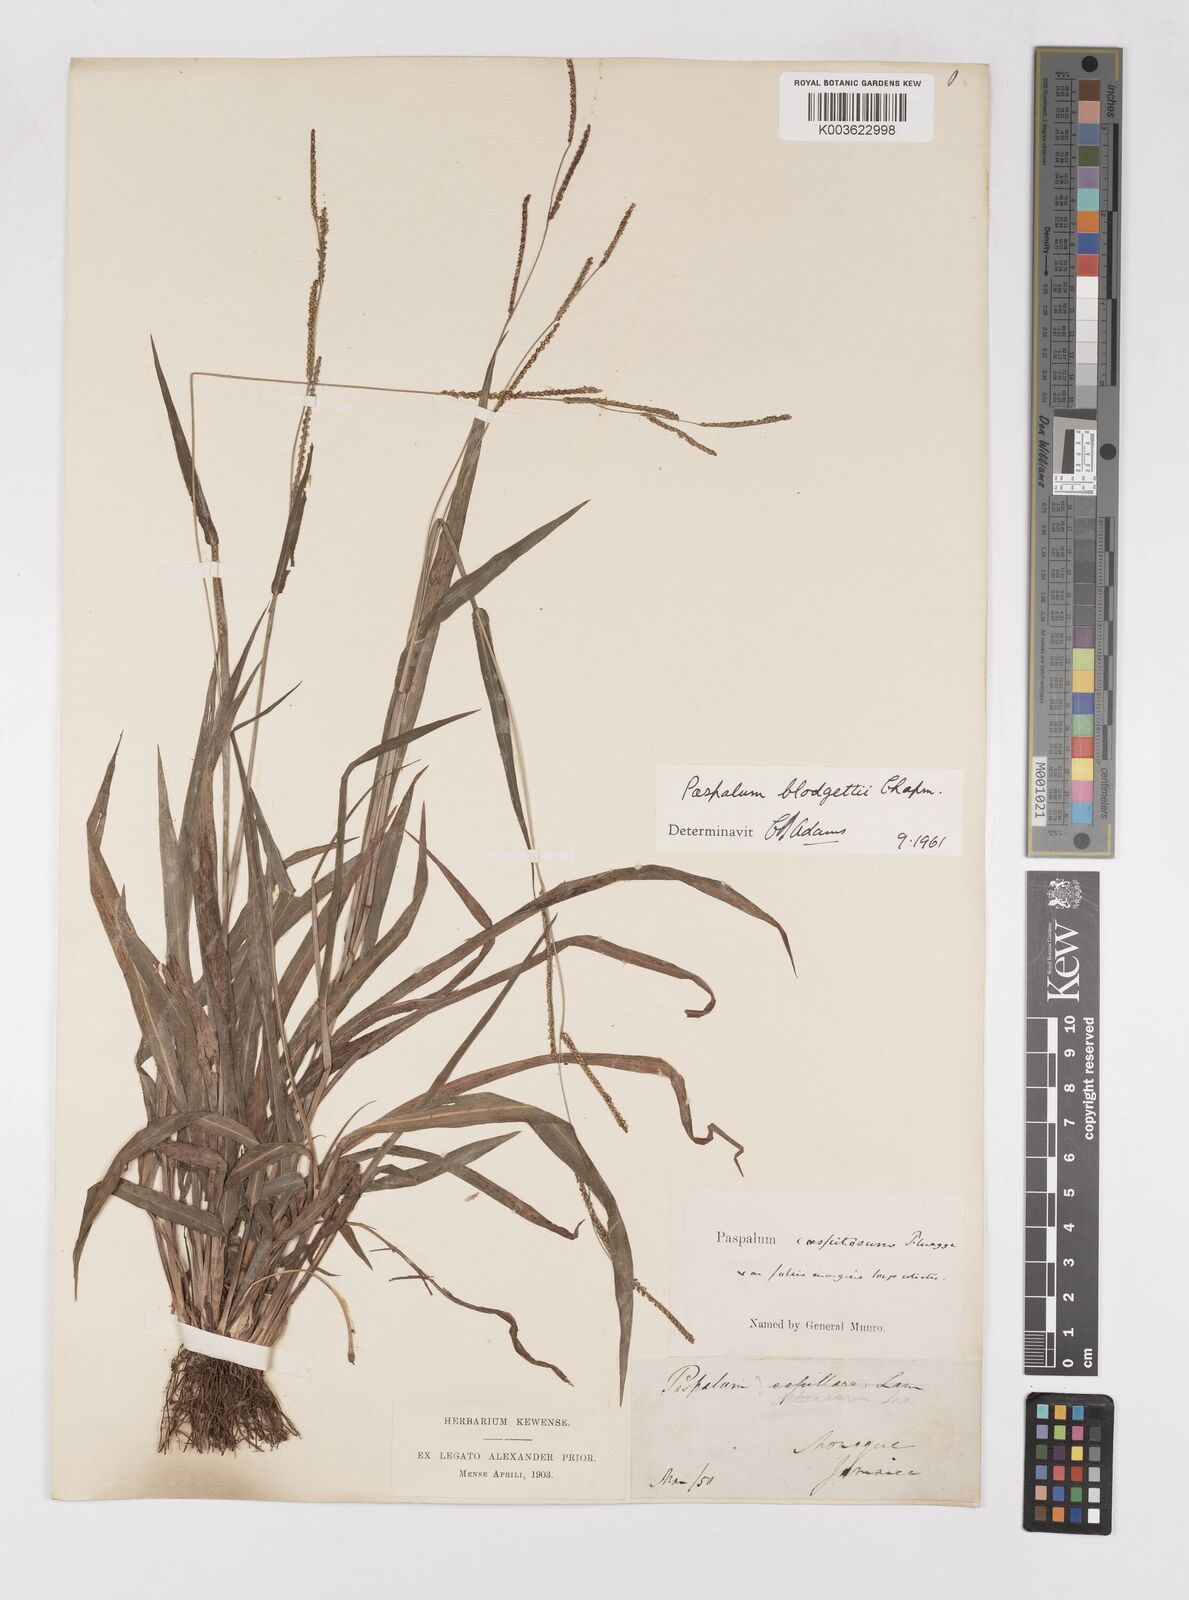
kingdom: Plantae
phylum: Tracheophyta
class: Liliopsida
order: Poales
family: Poaceae
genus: Paspalum
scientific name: Paspalum blodgettii
